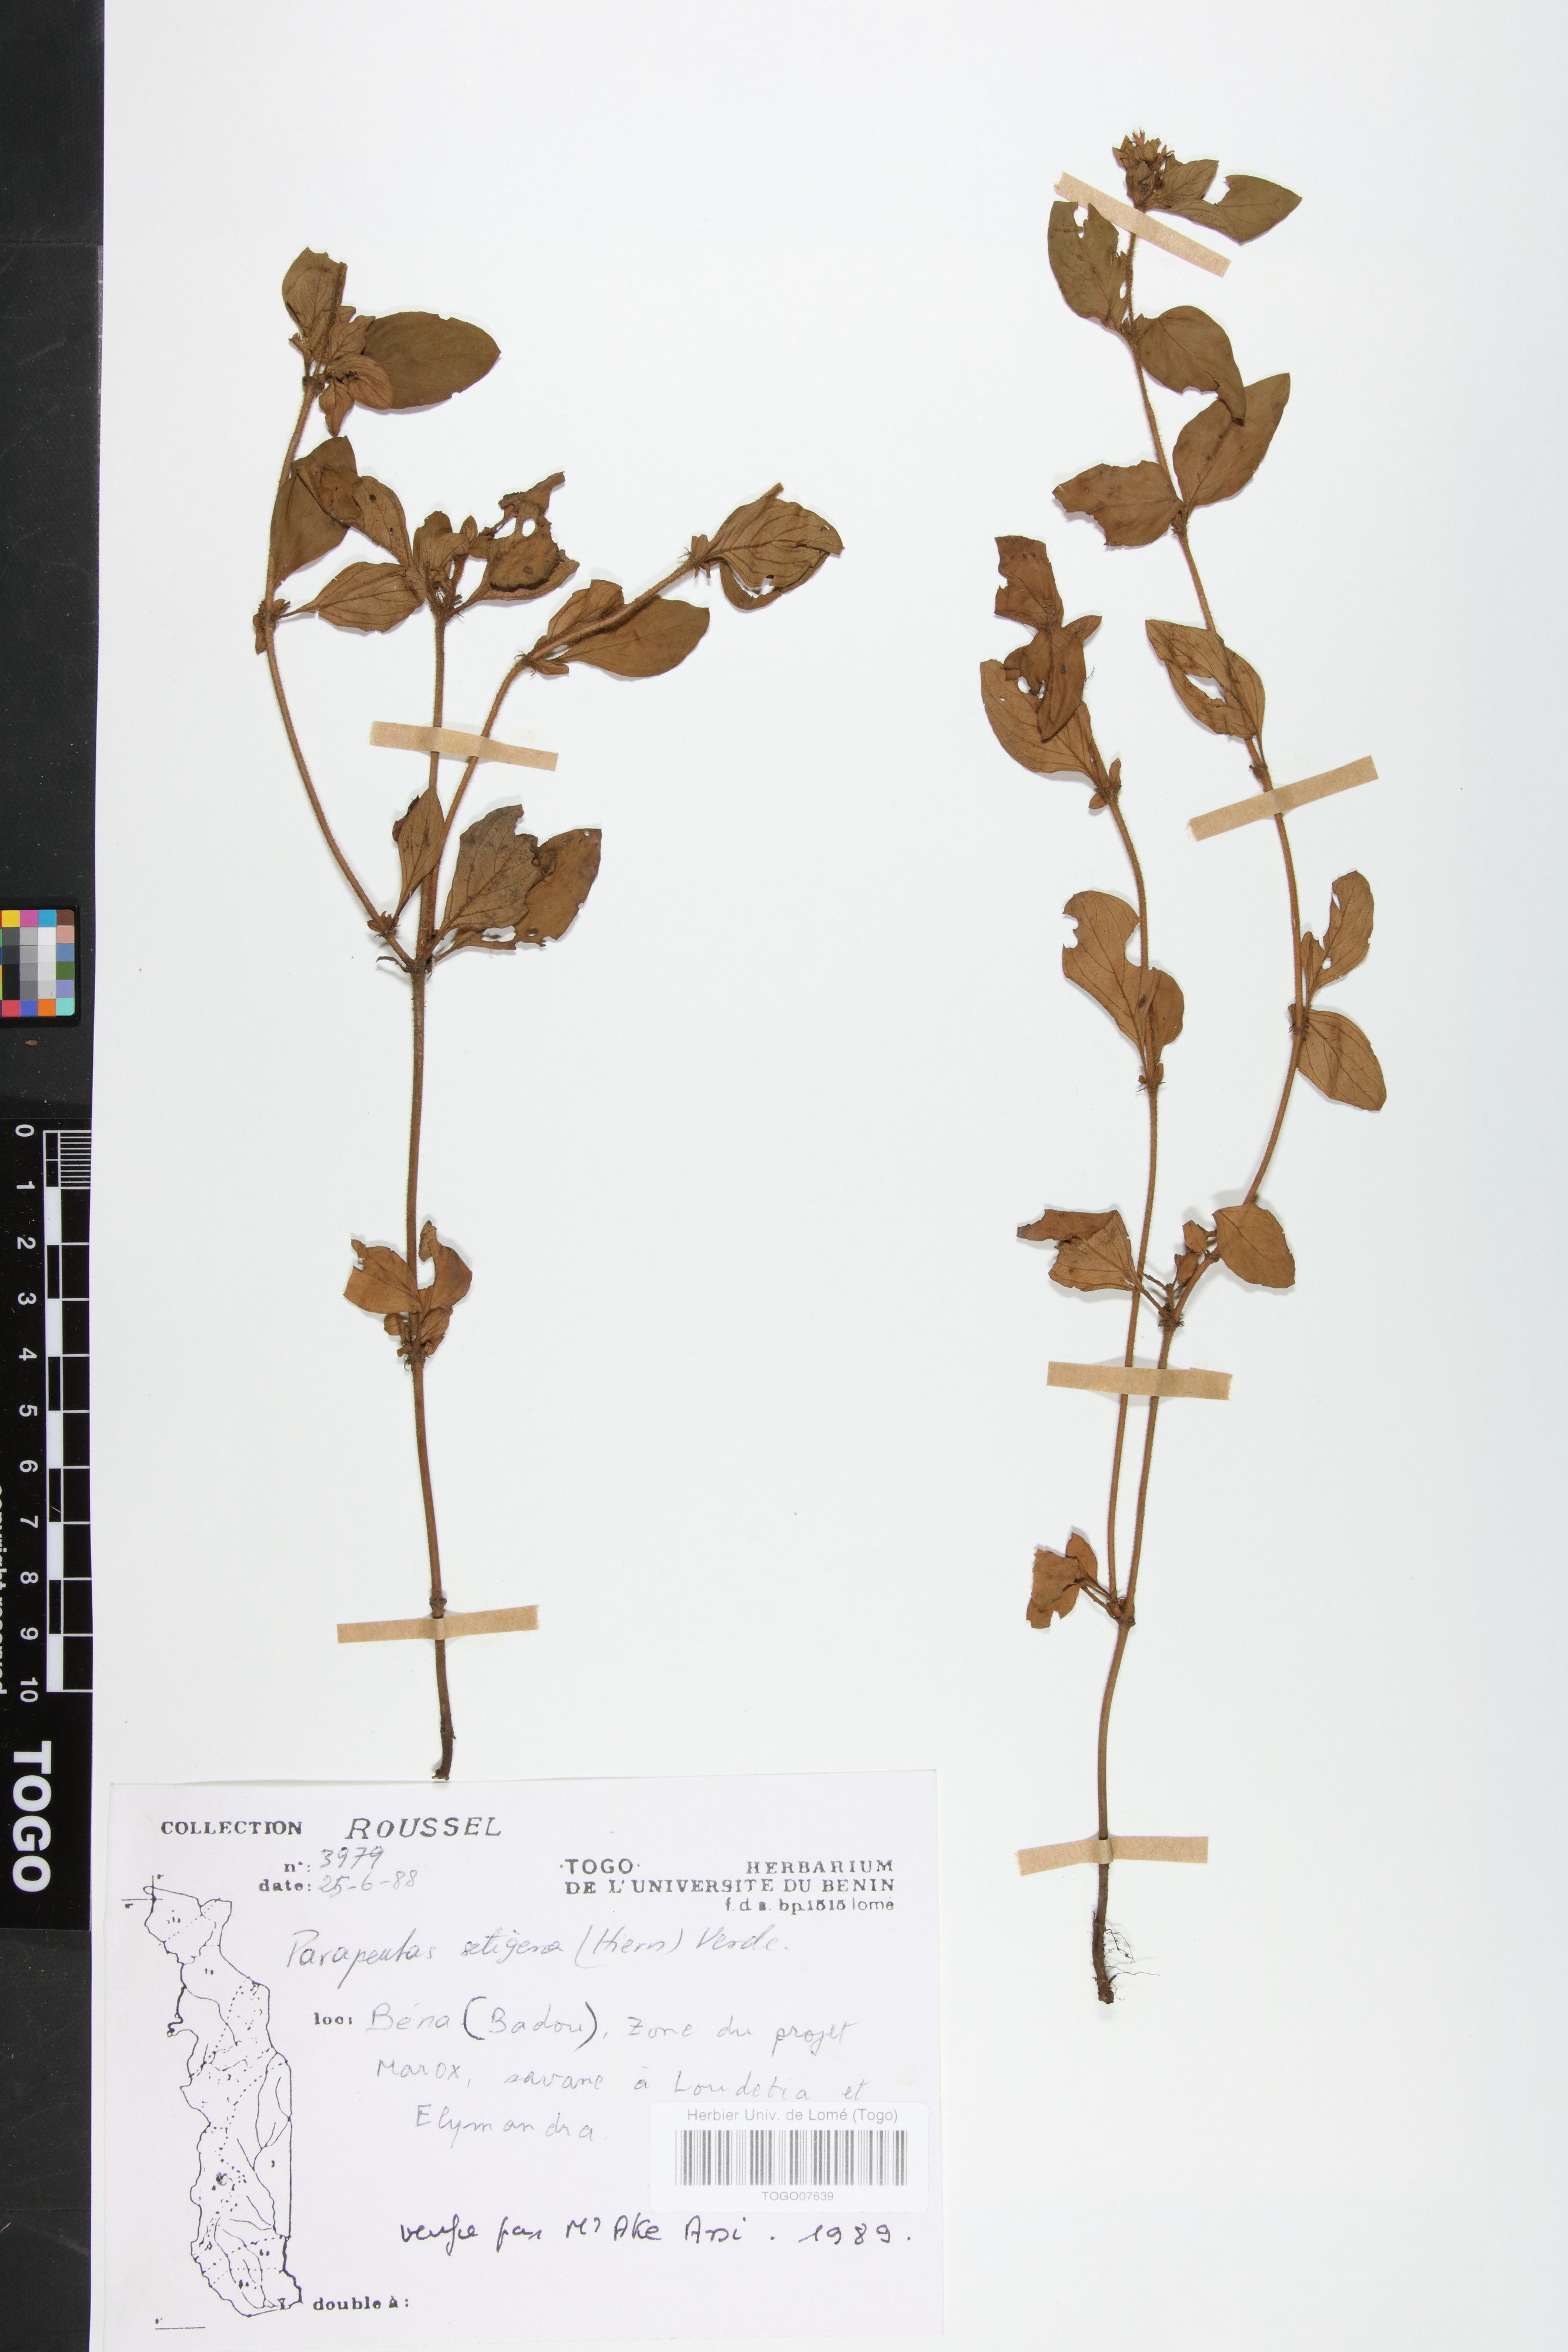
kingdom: Plantae
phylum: Tracheophyta
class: Magnoliopsida
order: Gentianales
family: Rubiaceae
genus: Parapentas
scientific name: Parapentas setigera
